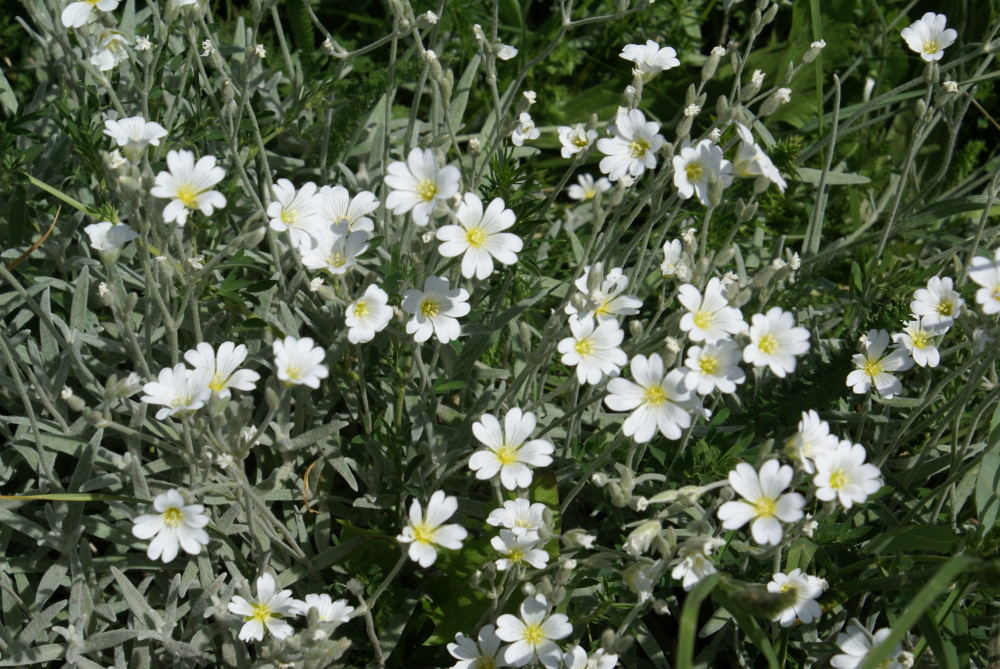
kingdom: Plantae
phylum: Tracheophyta
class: Magnoliopsida
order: Caryophyllales
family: Caryophyllaceae
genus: Cerastium
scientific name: Cerastium biebersteinii
